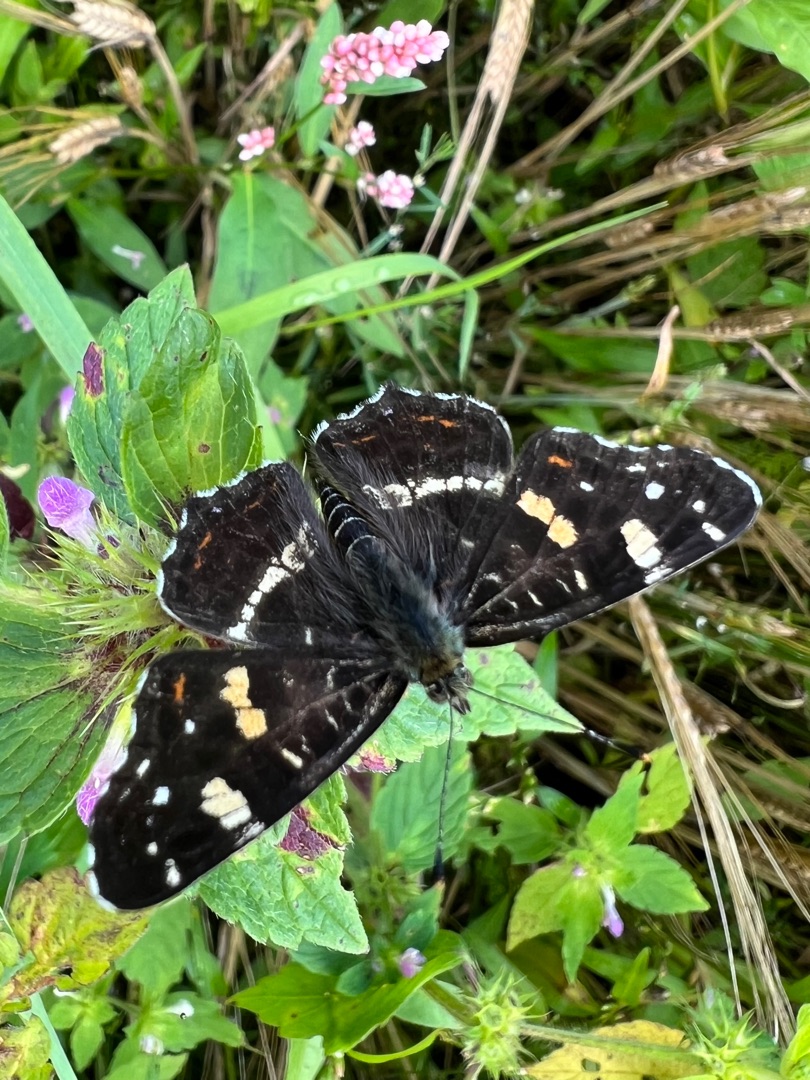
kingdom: Animalia
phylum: Arthropoda
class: Insecta
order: Lepidoptera
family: Nymphalidae
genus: Araschnia
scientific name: Araschnia levana
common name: Nældesommerfugl
